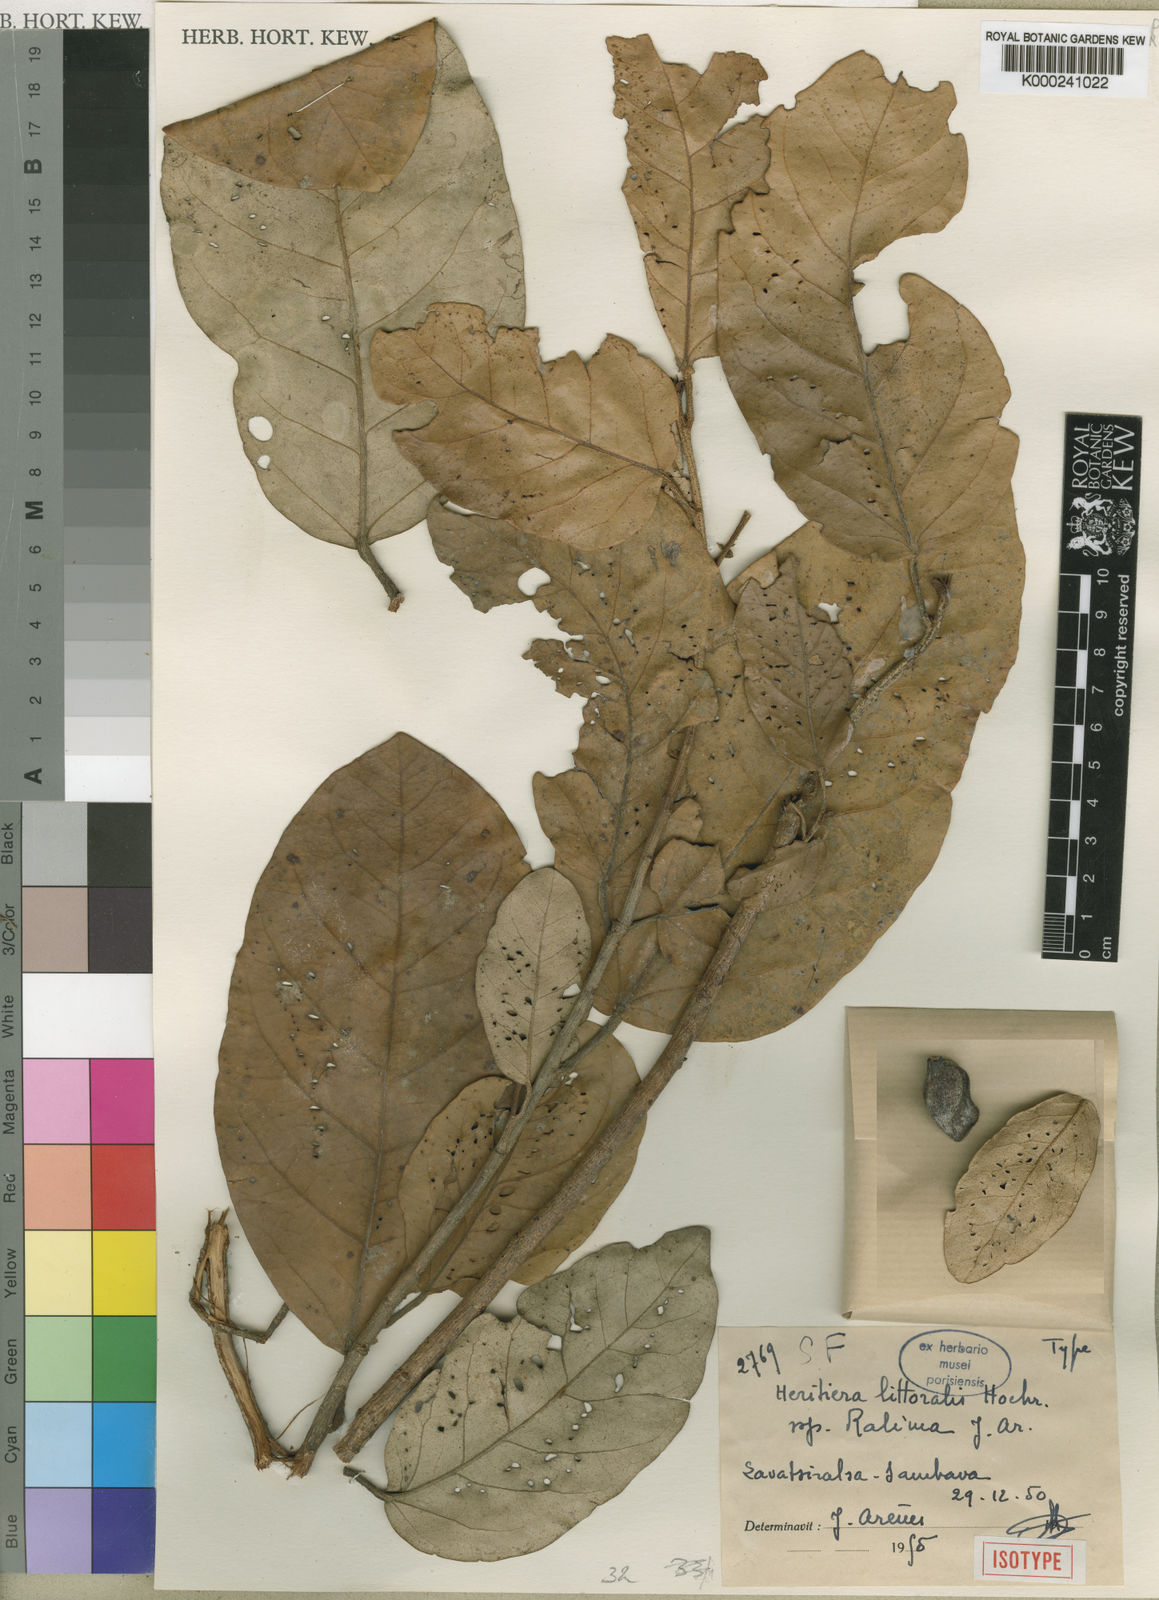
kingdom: Plantae
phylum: Tracheophyta
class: Magnoliopsida
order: Malvales
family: Malvaceae
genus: Heritiera
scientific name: Heritiera littoralis
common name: Looking-glass mangrove
